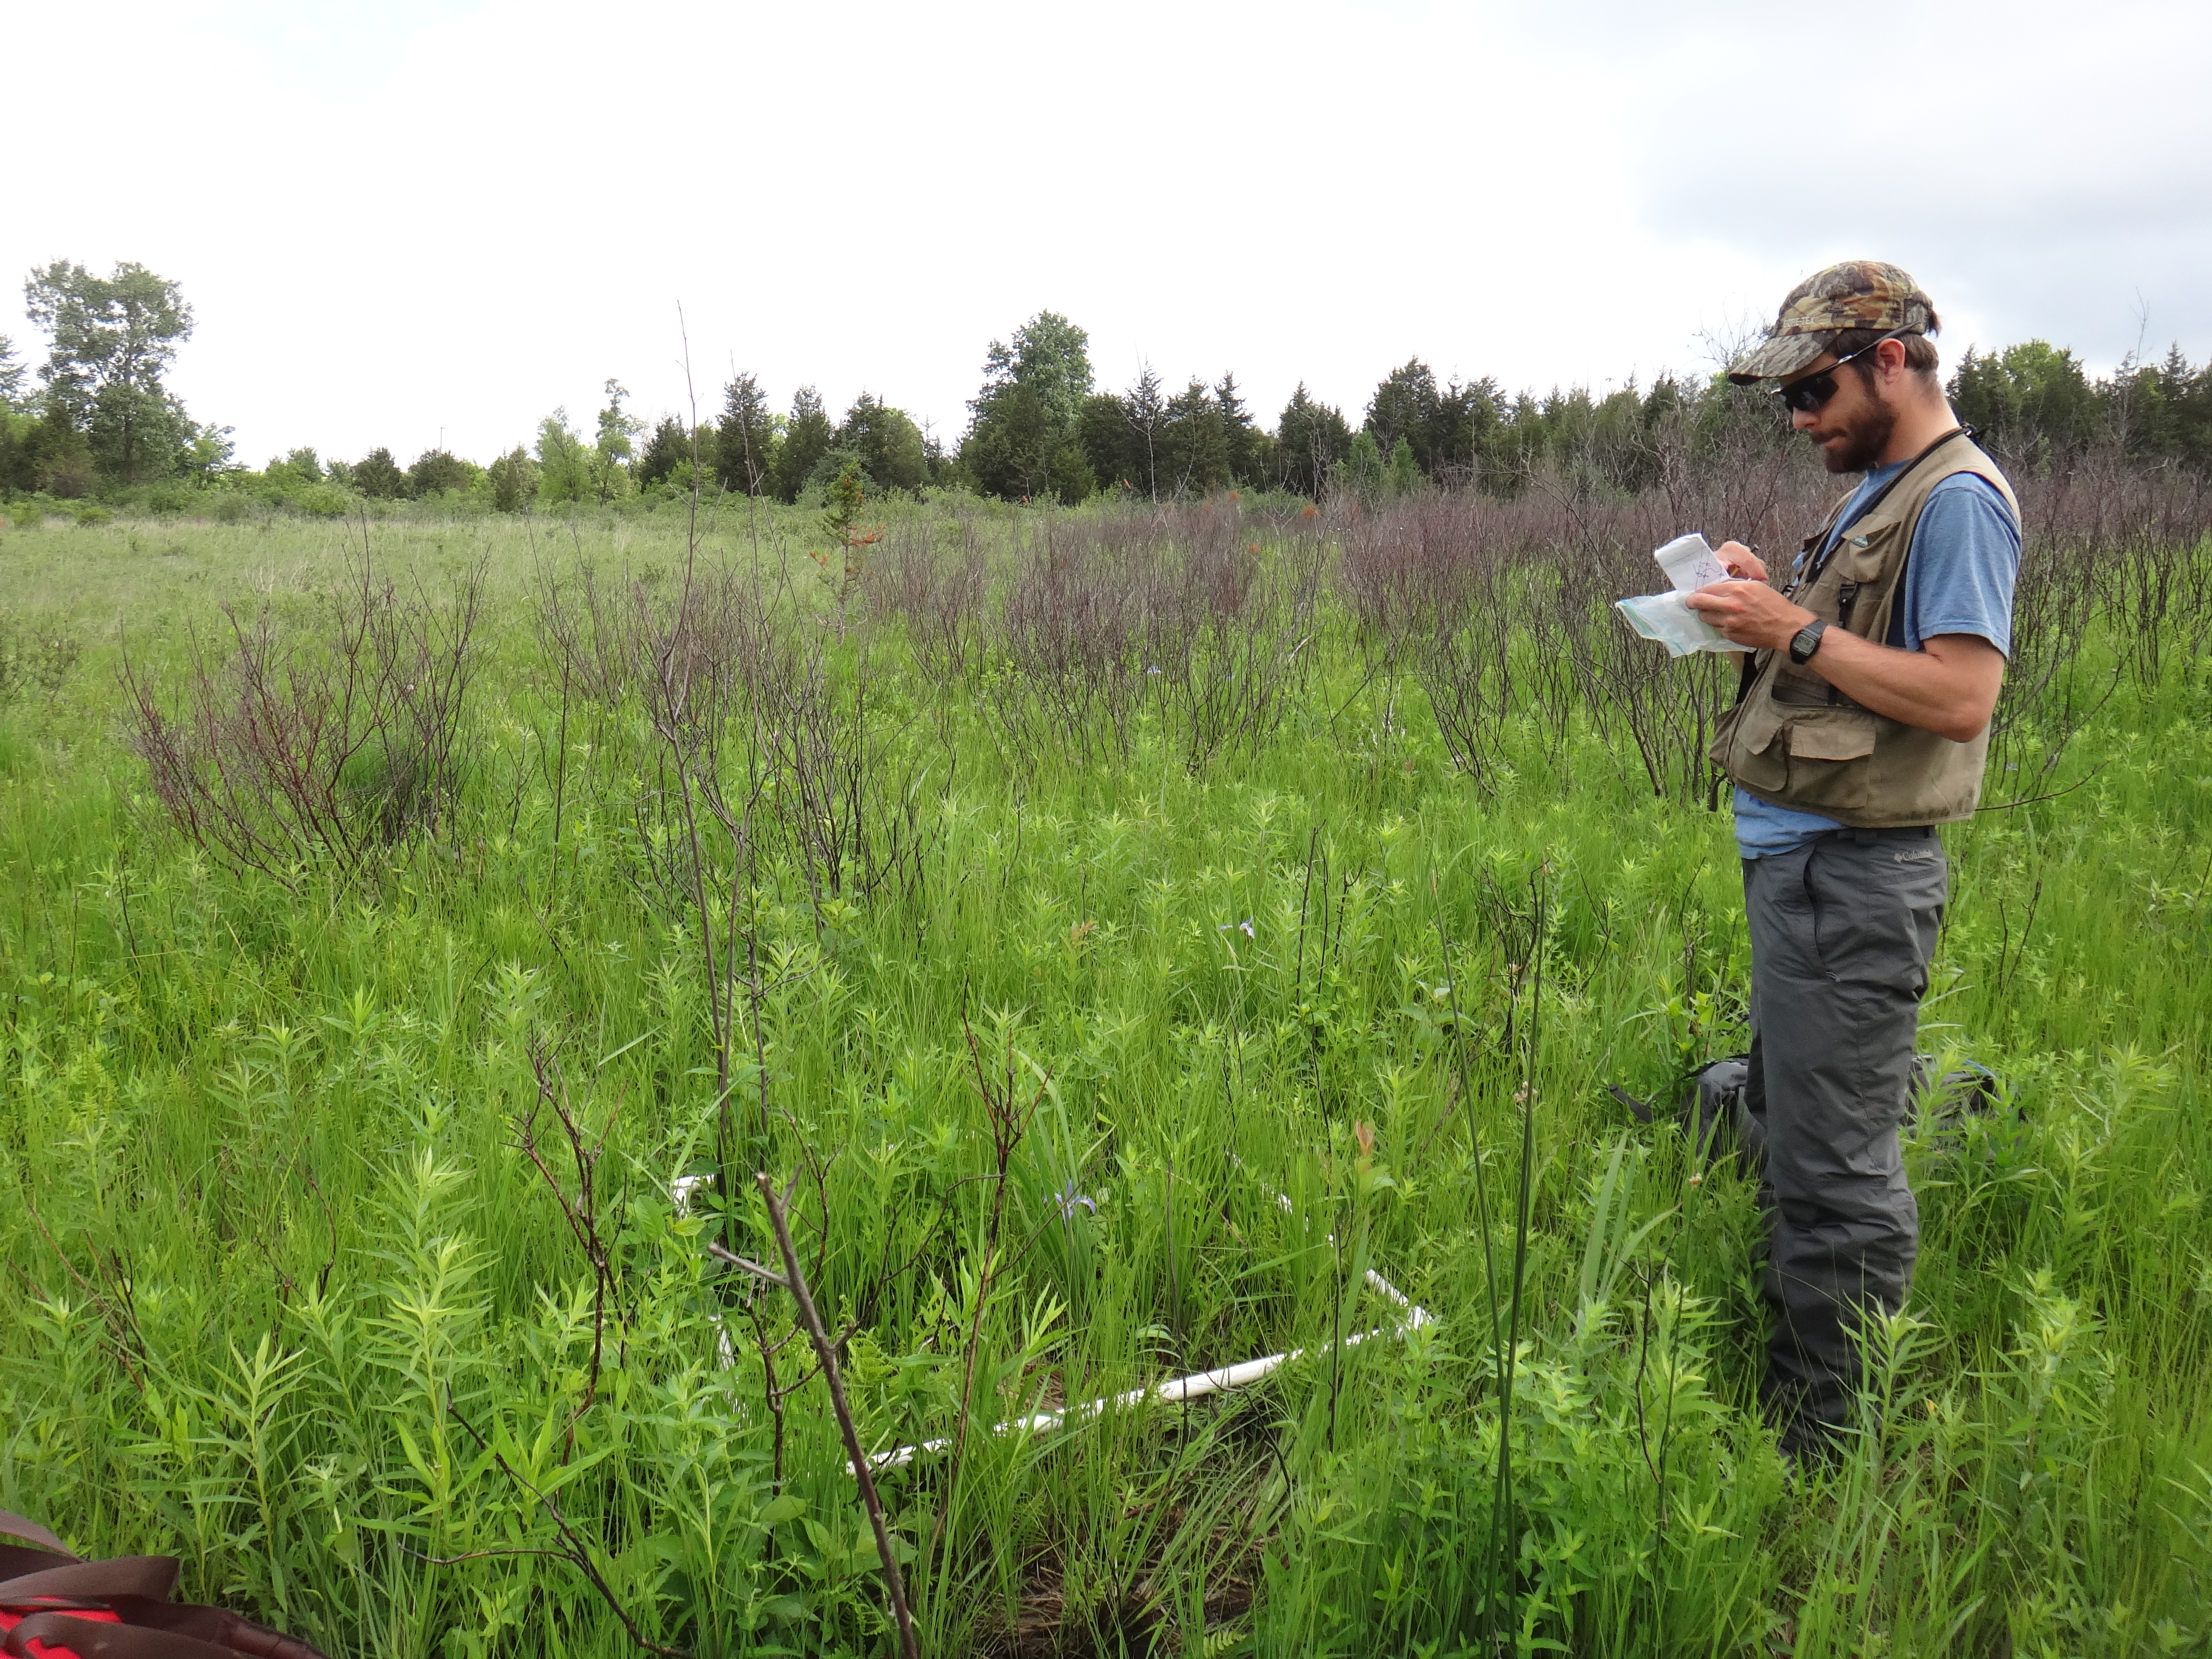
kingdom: Plantae
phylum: Tracheophyta
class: Polypodiopsida
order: Polypodiales
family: Thelypteridaceae
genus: Thelypteris
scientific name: Thelypteris palustris
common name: Marsh fern
